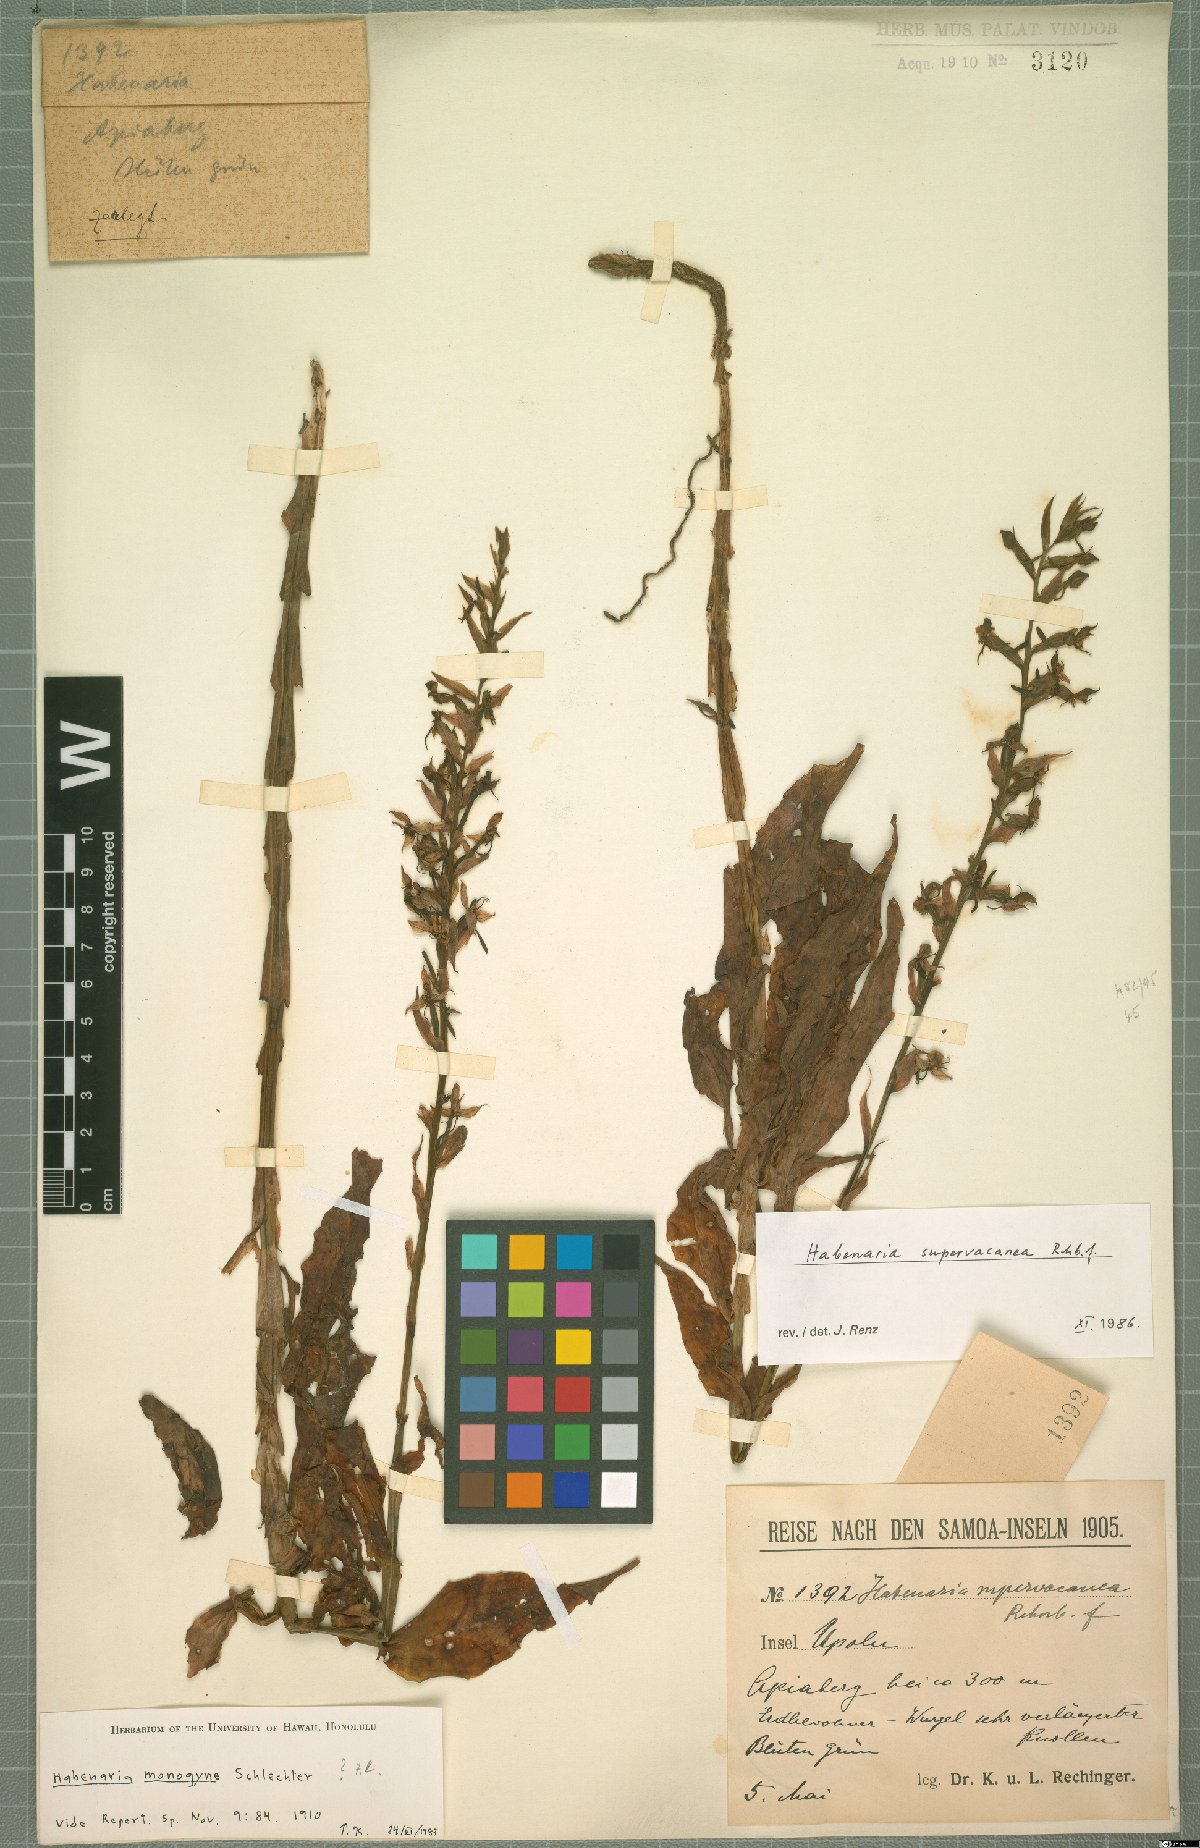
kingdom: Plantae
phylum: Tracheophyta
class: Liliopsida
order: Asparagales
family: Orchidaceae
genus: Habenaria
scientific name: Habenaria supervacanea
